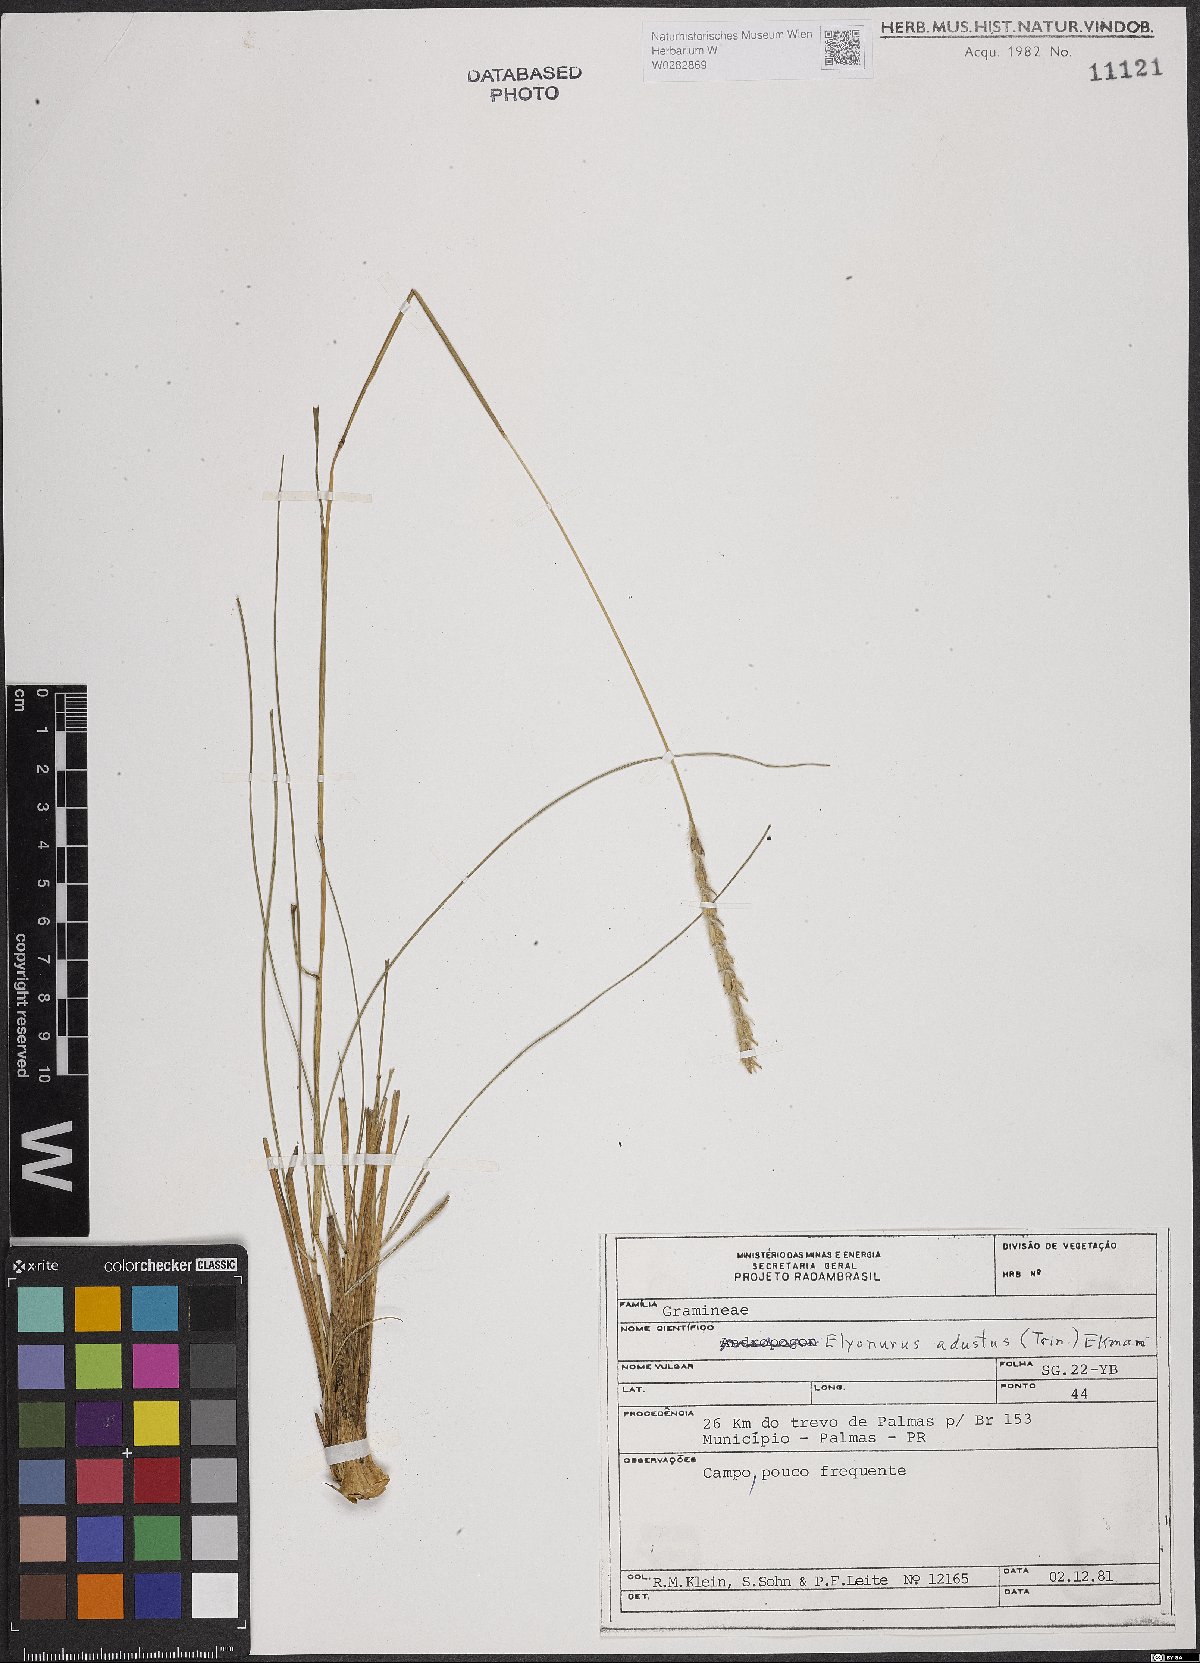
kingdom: Plantae
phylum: Tracheophyta
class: Liliopsida
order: Poales
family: Poaceae
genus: Elionurus
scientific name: Elionurus muticus
